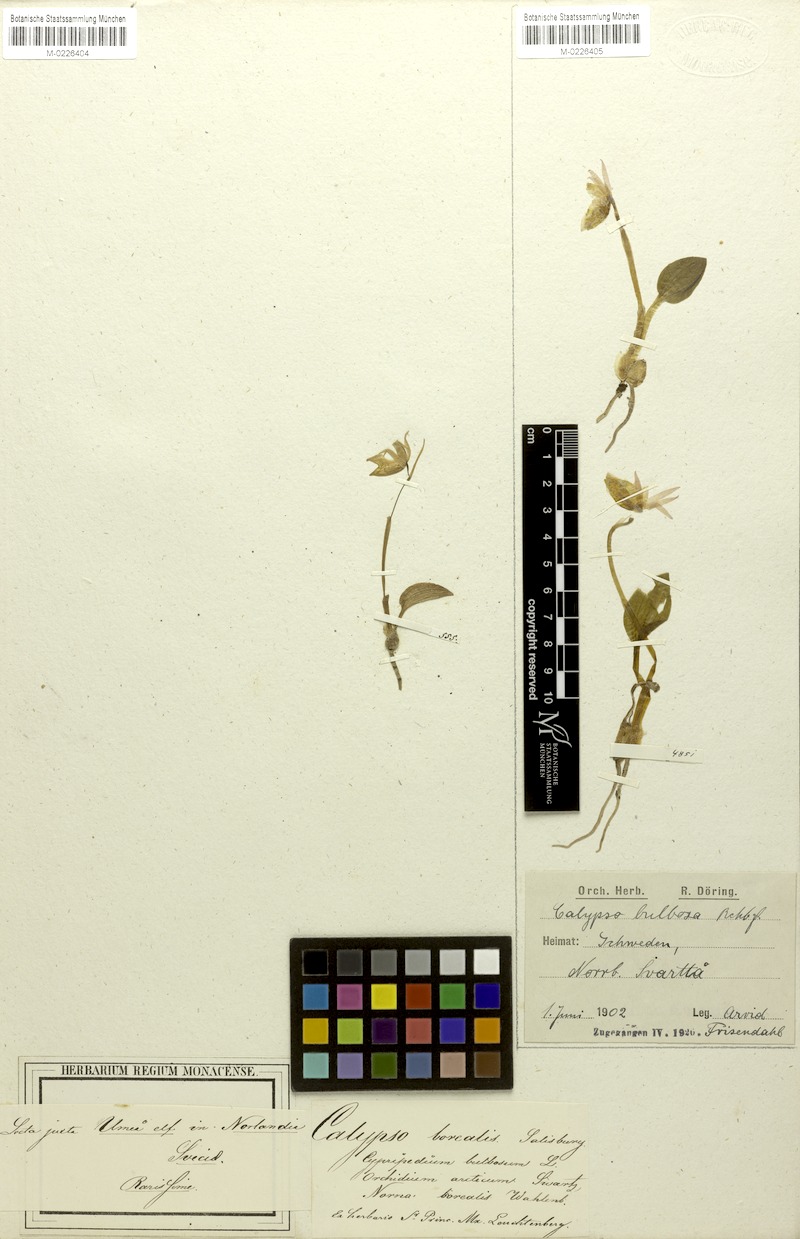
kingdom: Plantae
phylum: Tracheophyta
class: Liliopsida
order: Asparagales
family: Orchidaceae
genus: Calypso
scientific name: Calypso bulbosa
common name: Calypso
